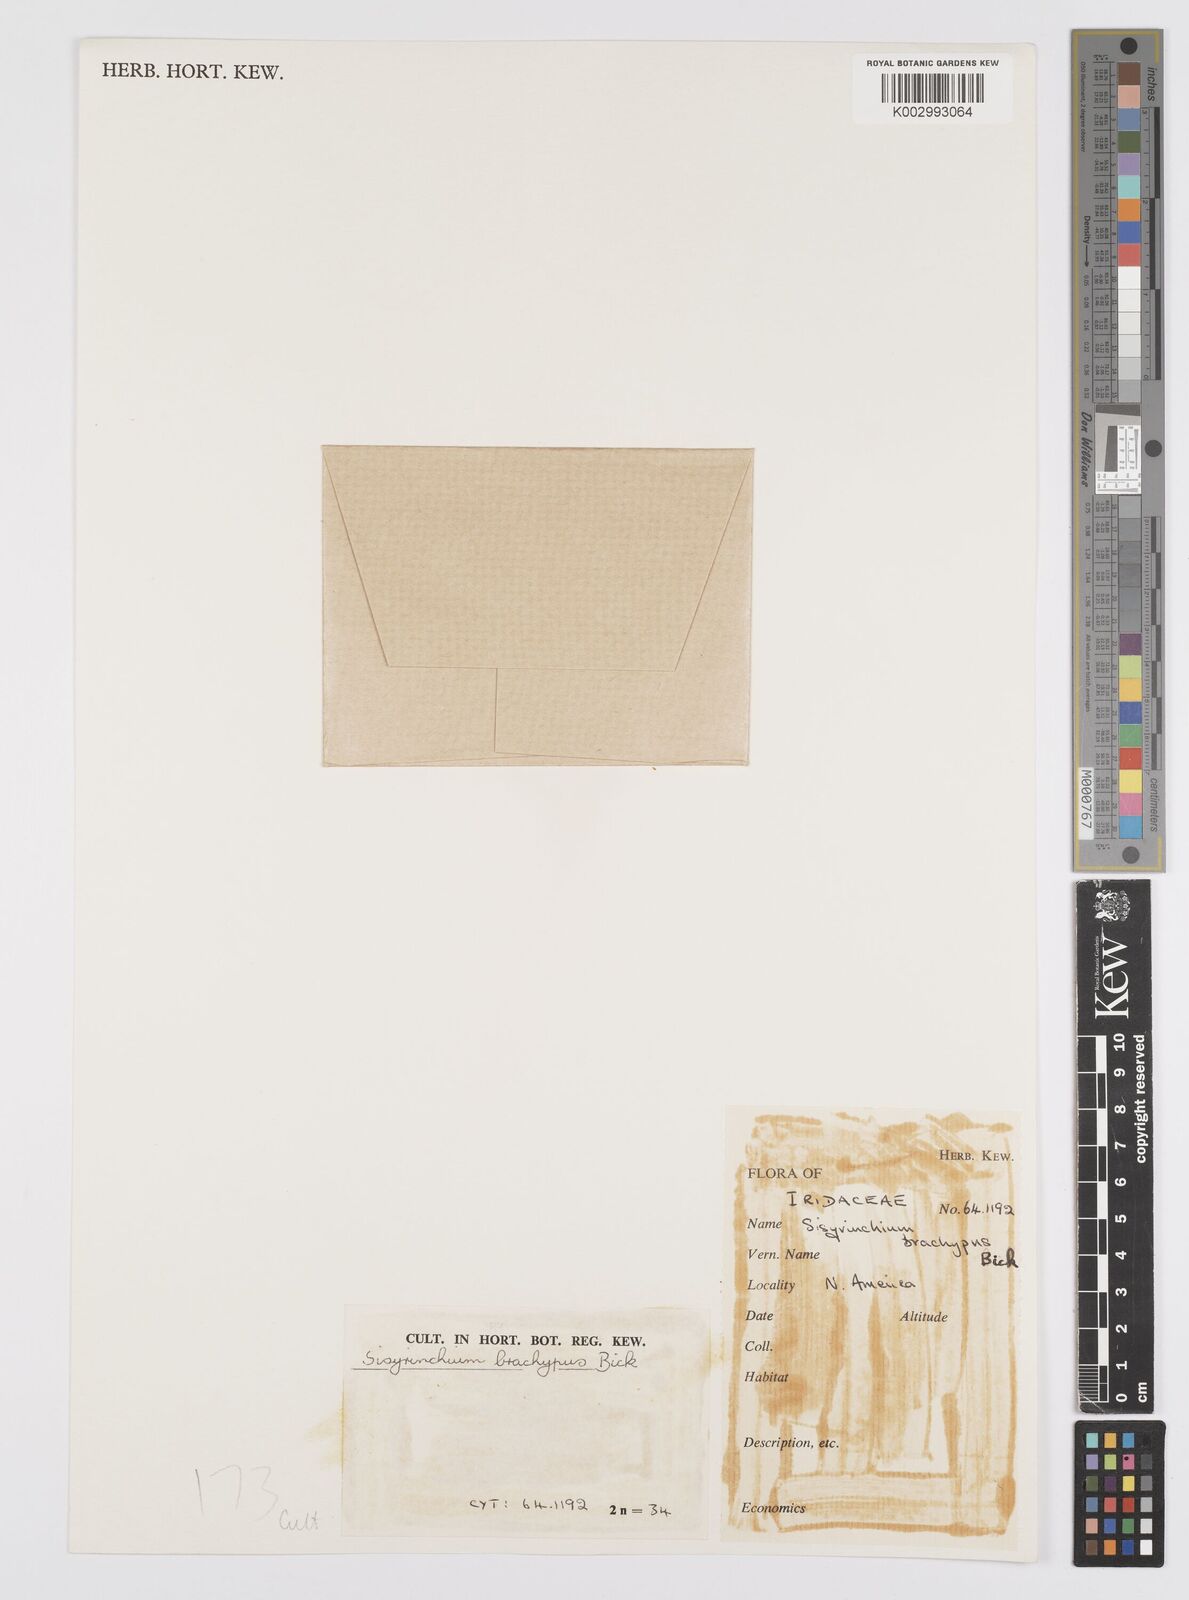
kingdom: Plantae
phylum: Tracheophyta
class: Liliopsida
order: Asparagales
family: Iridaceae
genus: Sisyrinchium
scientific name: Sisyrinchium californicum
